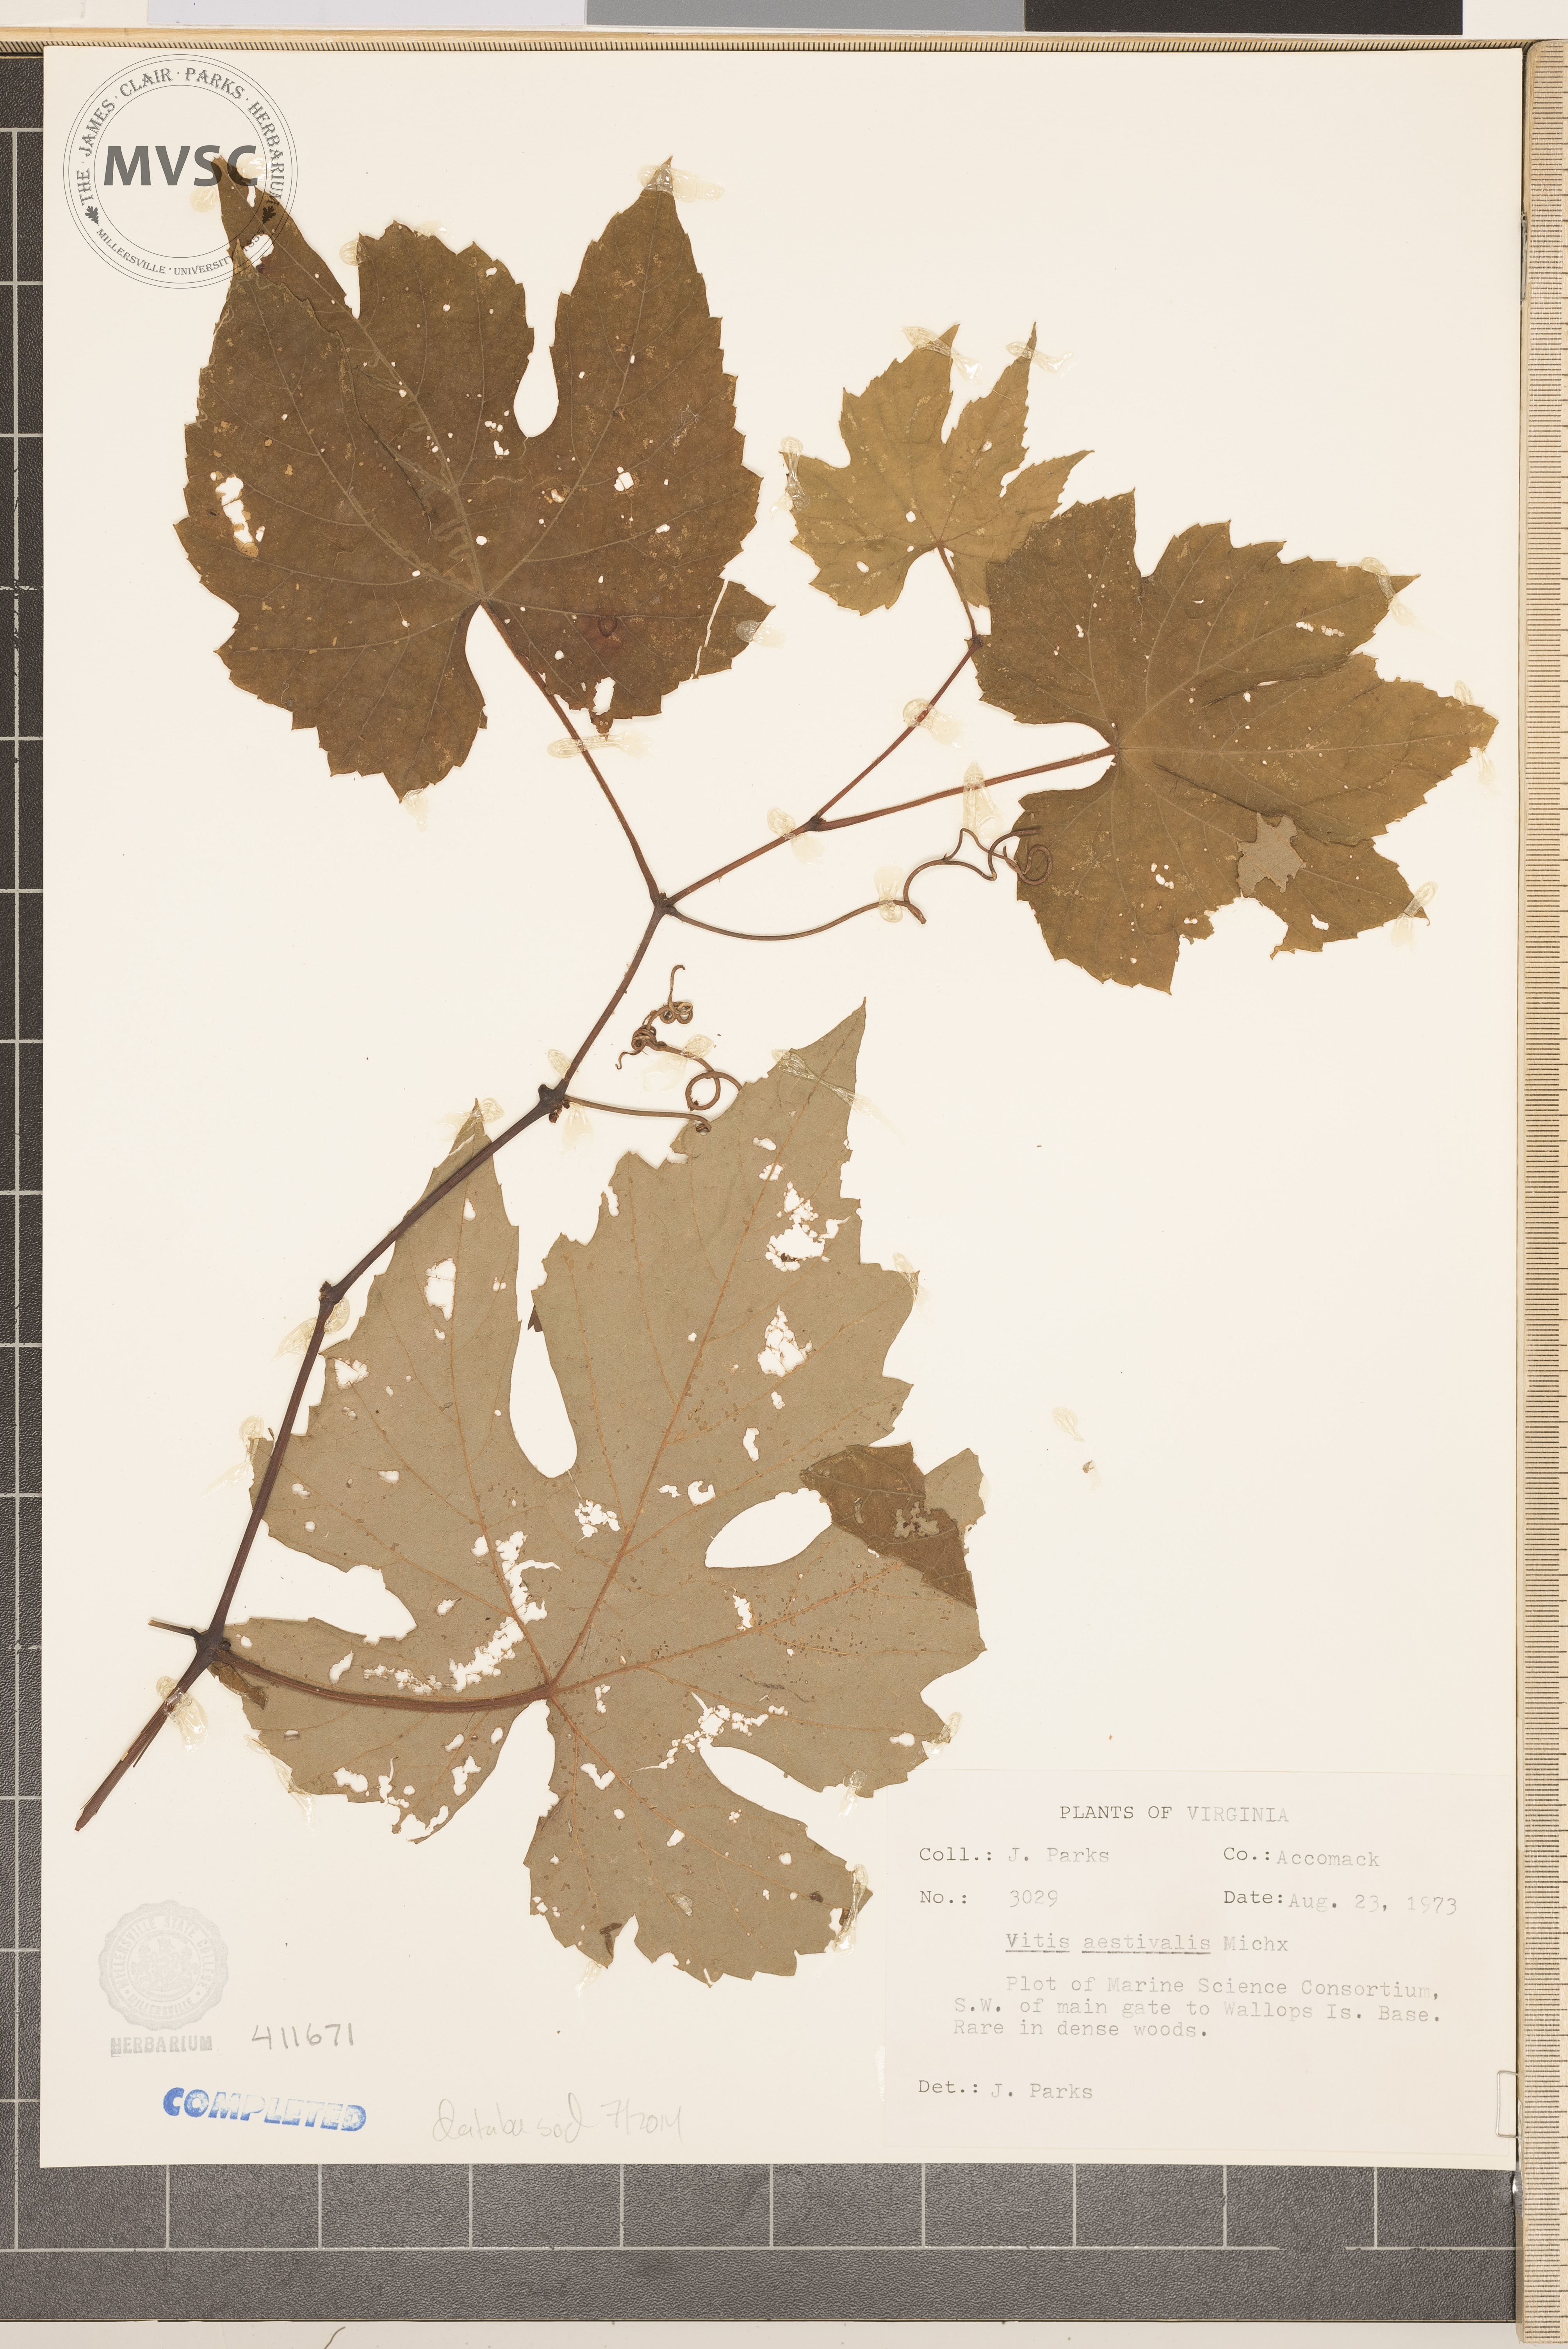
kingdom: Plantae
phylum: Tracheophyta
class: Magnoliopsida
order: Vitales
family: Vitaceae
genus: Vitis
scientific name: Vitis aestivalis
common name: Summer grape
